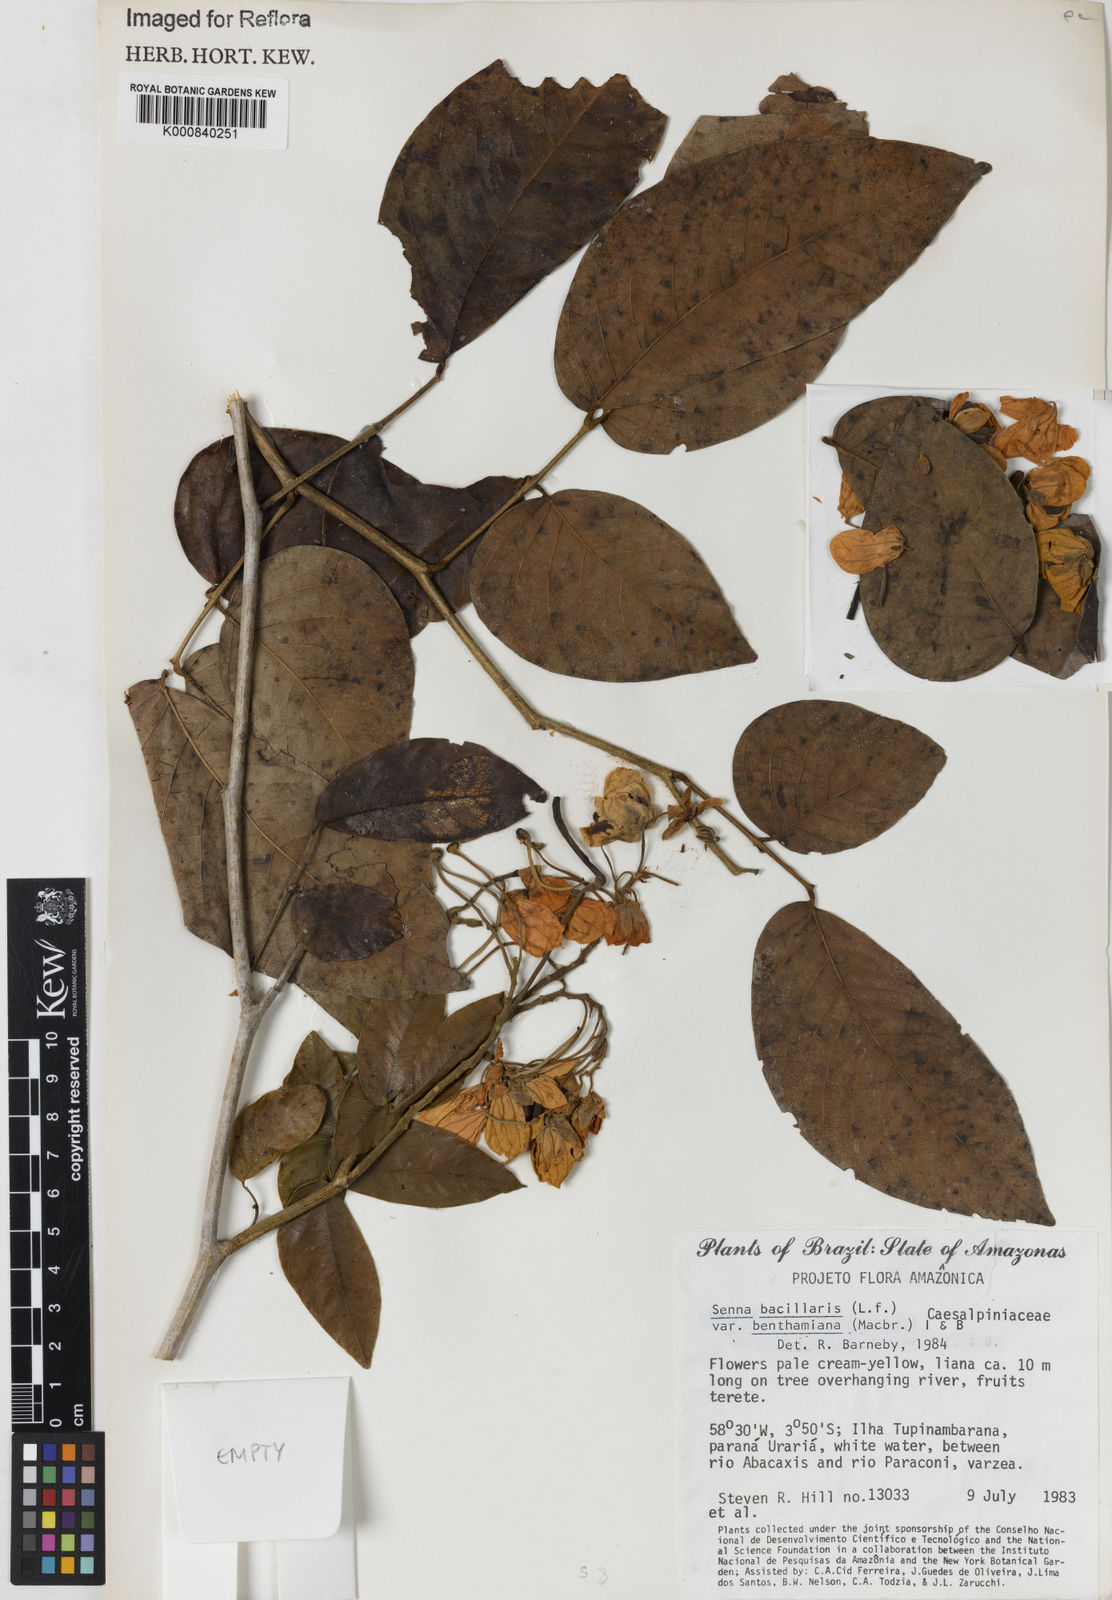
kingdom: Plantae
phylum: Tracheophyta
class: Magnoliopsida
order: Fabales
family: Fabaceae
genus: Senna
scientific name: Senna bacillaris
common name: West indian showertree
